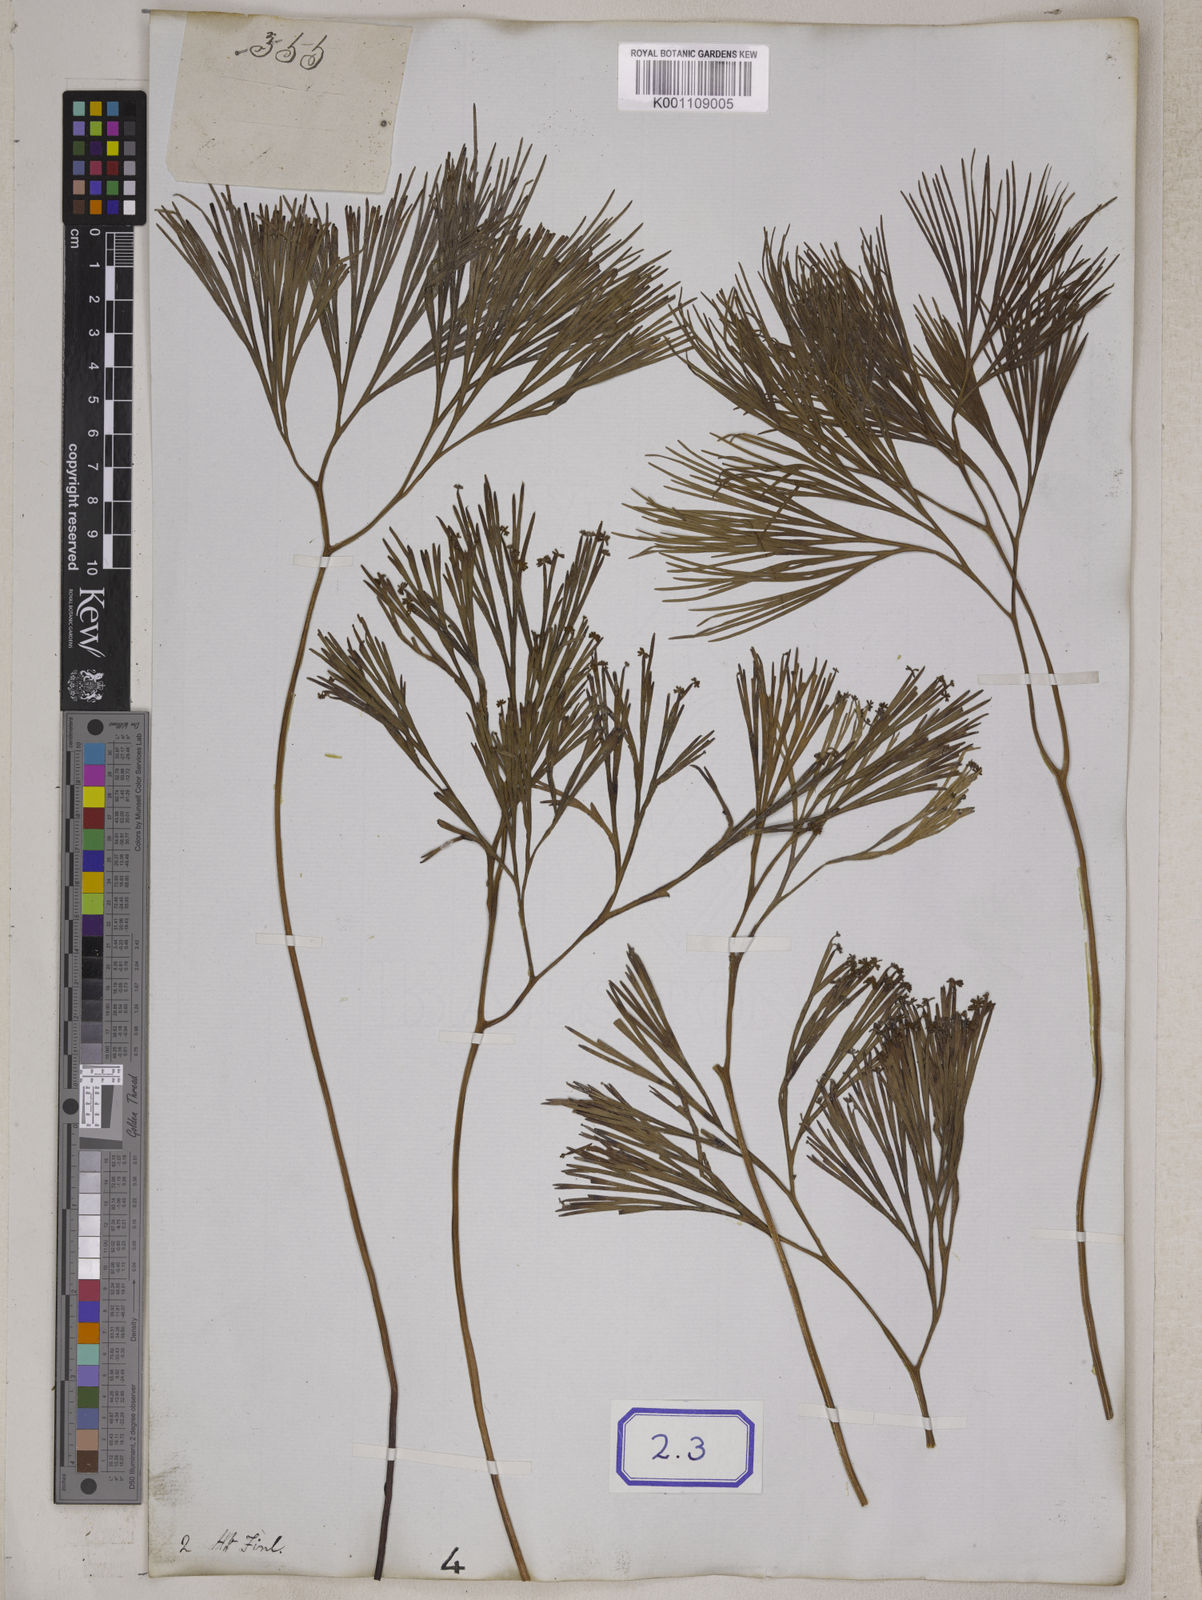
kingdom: Plantae
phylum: Tracheophyta
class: Polypodiopsida
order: Schizaeales
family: Schizaeaceae
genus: Schizaea
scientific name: Schizaea
